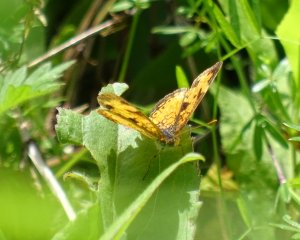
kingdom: Animalia
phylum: Arthropoda
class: Insecta
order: Lepidoptera
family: Nymphalidae
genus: Phyciodes
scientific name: Phyciodes tharos
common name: Northern Crescent
